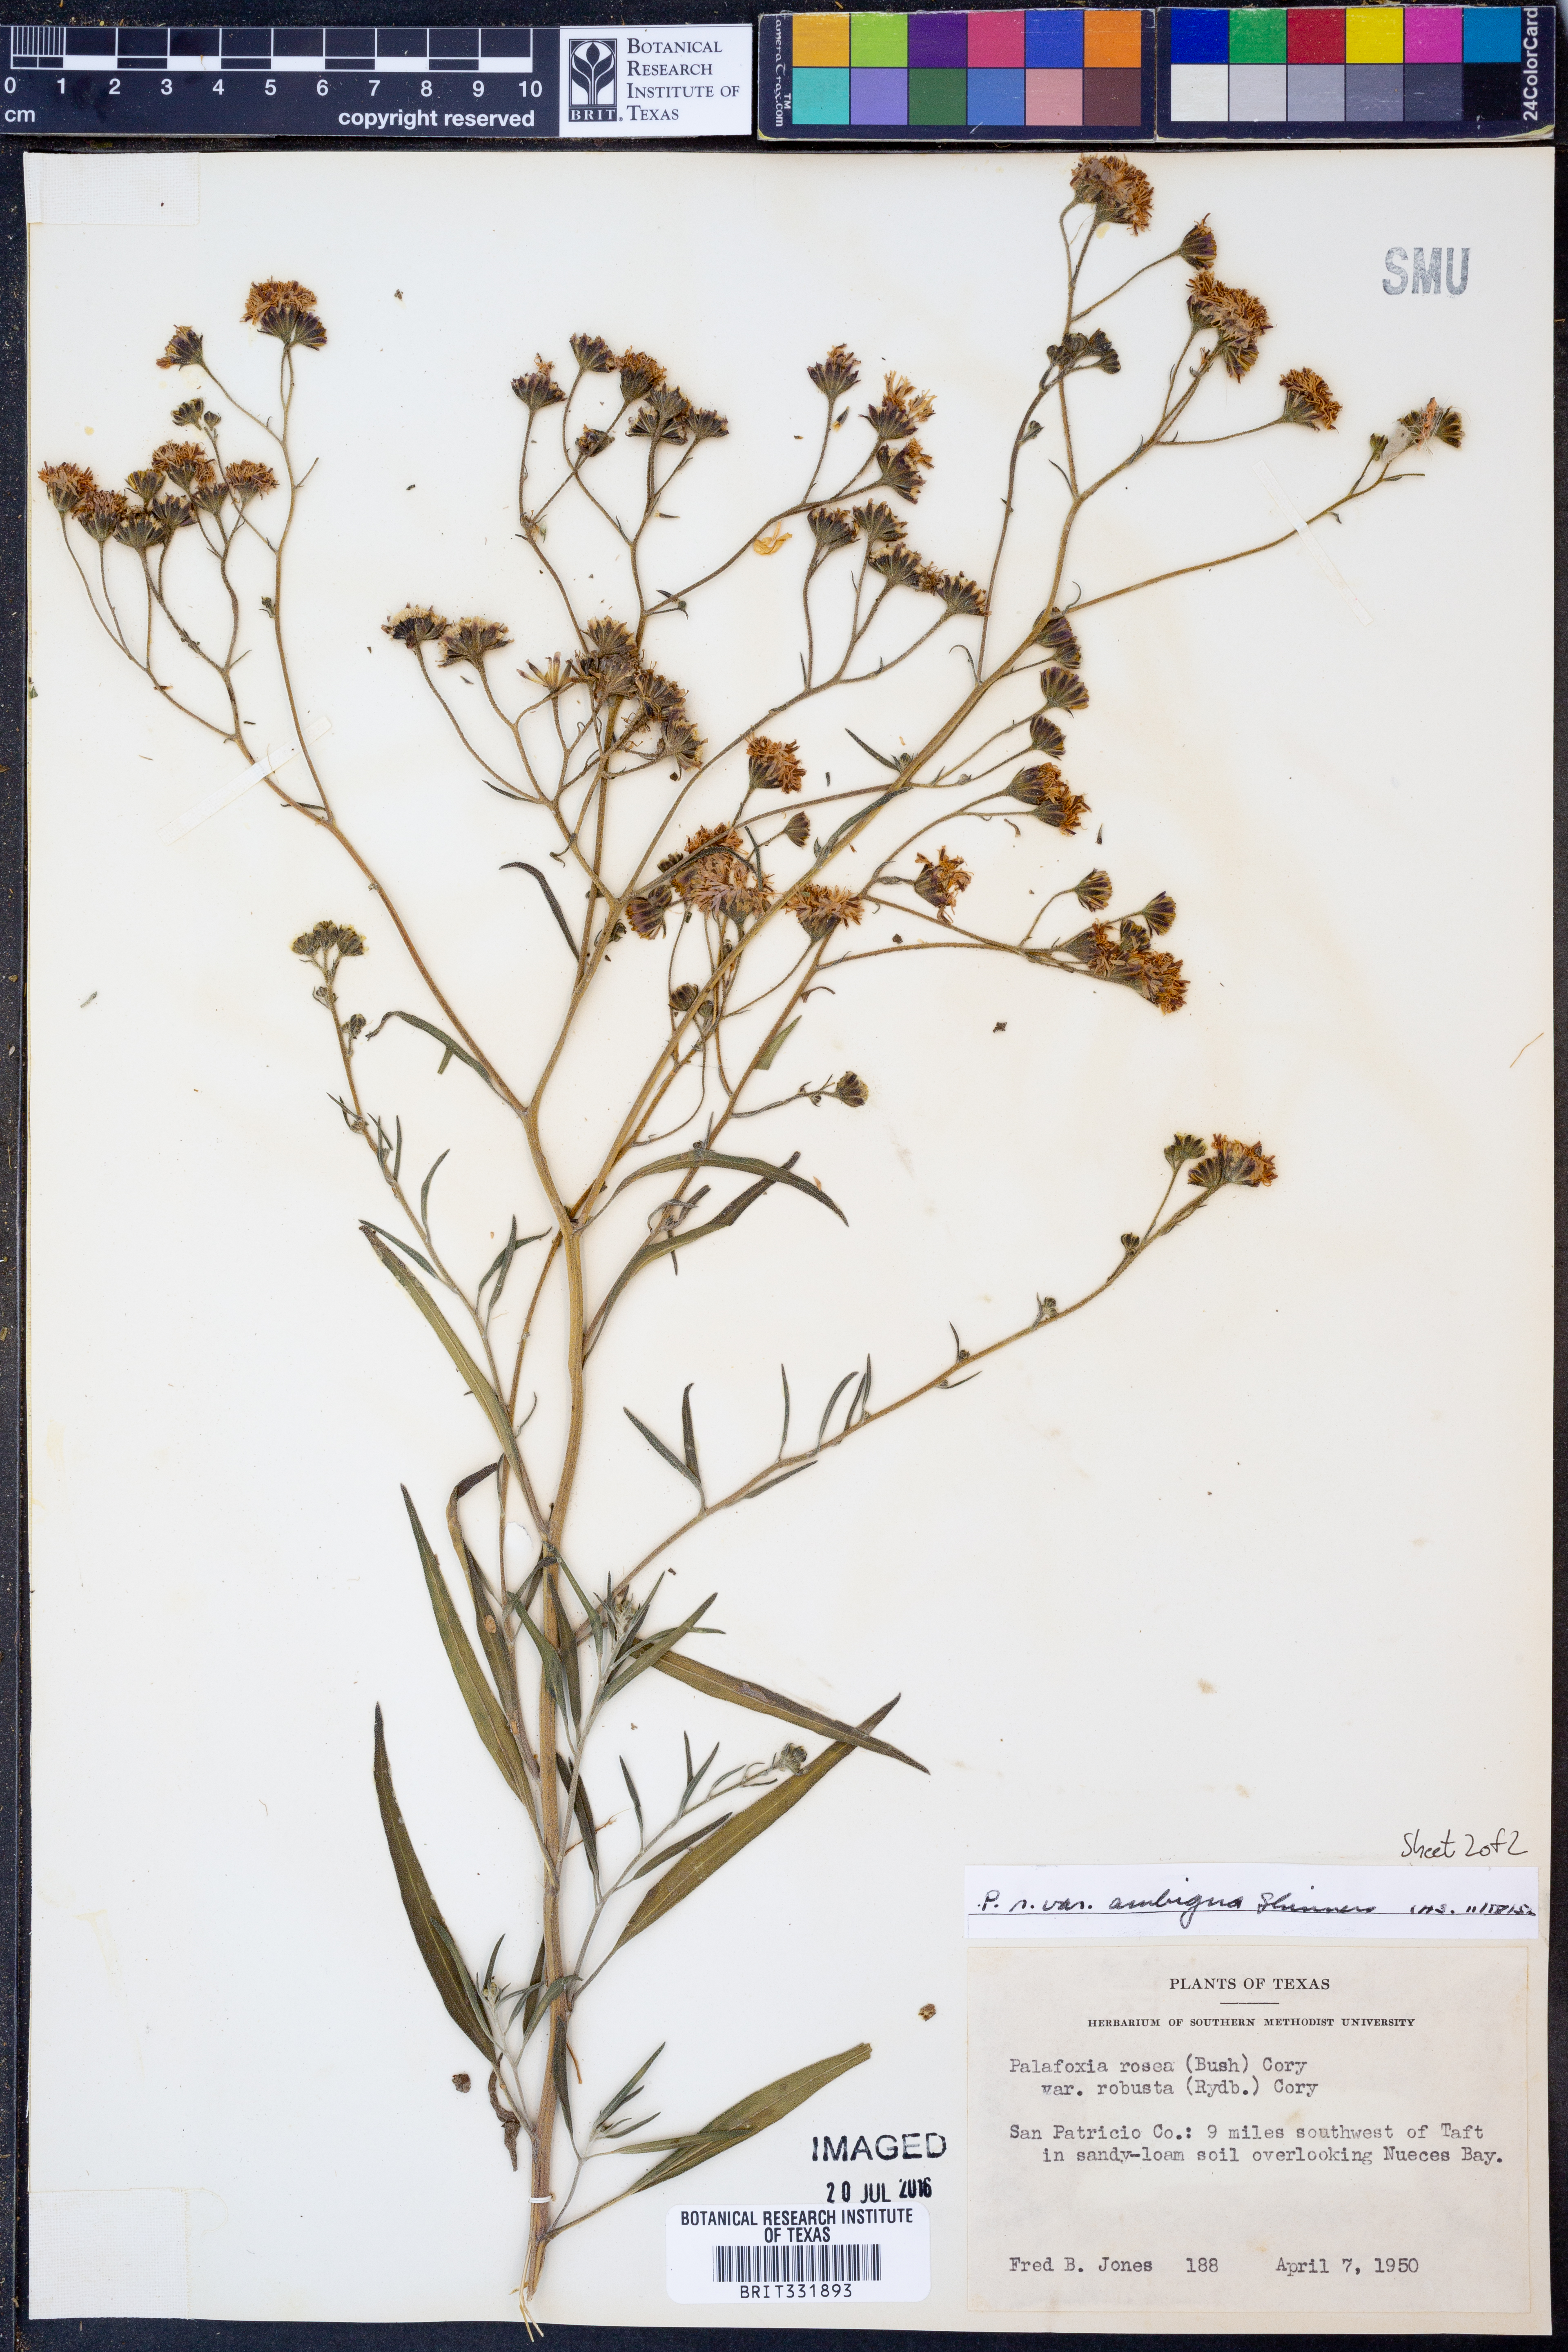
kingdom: Plantae
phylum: Tracheophyta
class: Magnoliopsida
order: Asterales
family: Asteraceae
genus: Palafoxia
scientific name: Palafoxia texana
